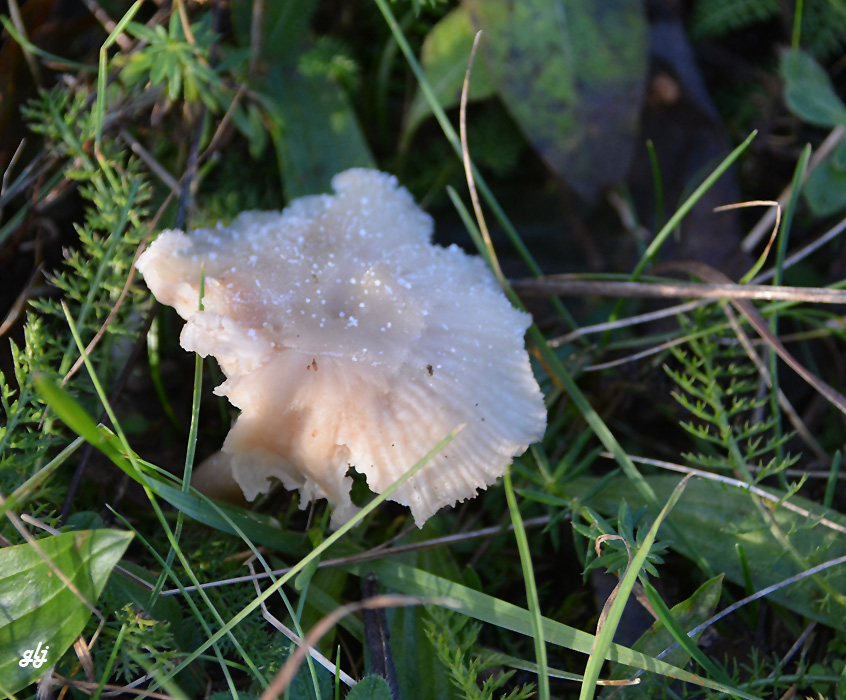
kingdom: Fungi
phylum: Basidiomycota
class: Agaricomycetes
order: Agaricales
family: Hygrophoraceae
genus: Cuphophyllus
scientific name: Cuphophyllus
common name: vokshat
